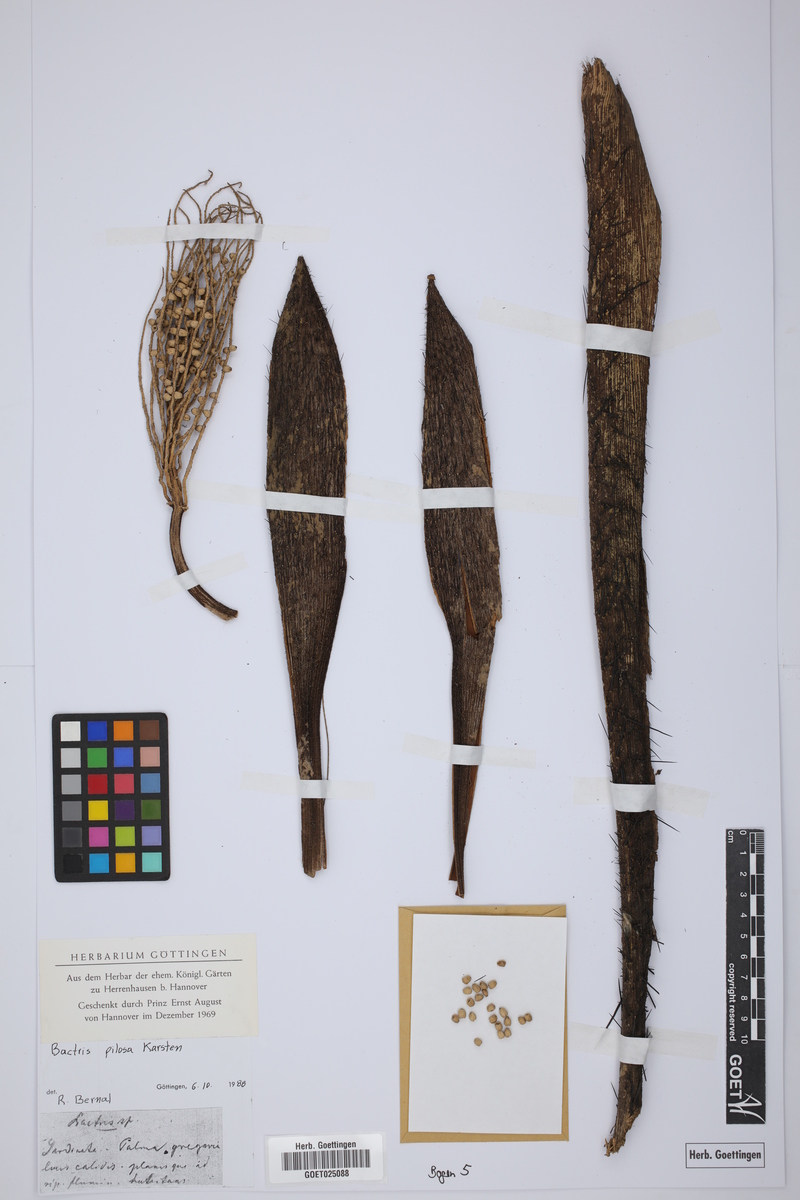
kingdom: Plantae
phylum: Tracheophyta
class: Liliopsida
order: Arecales
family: Arecaceae
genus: Bactris
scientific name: Bactris pilosa
